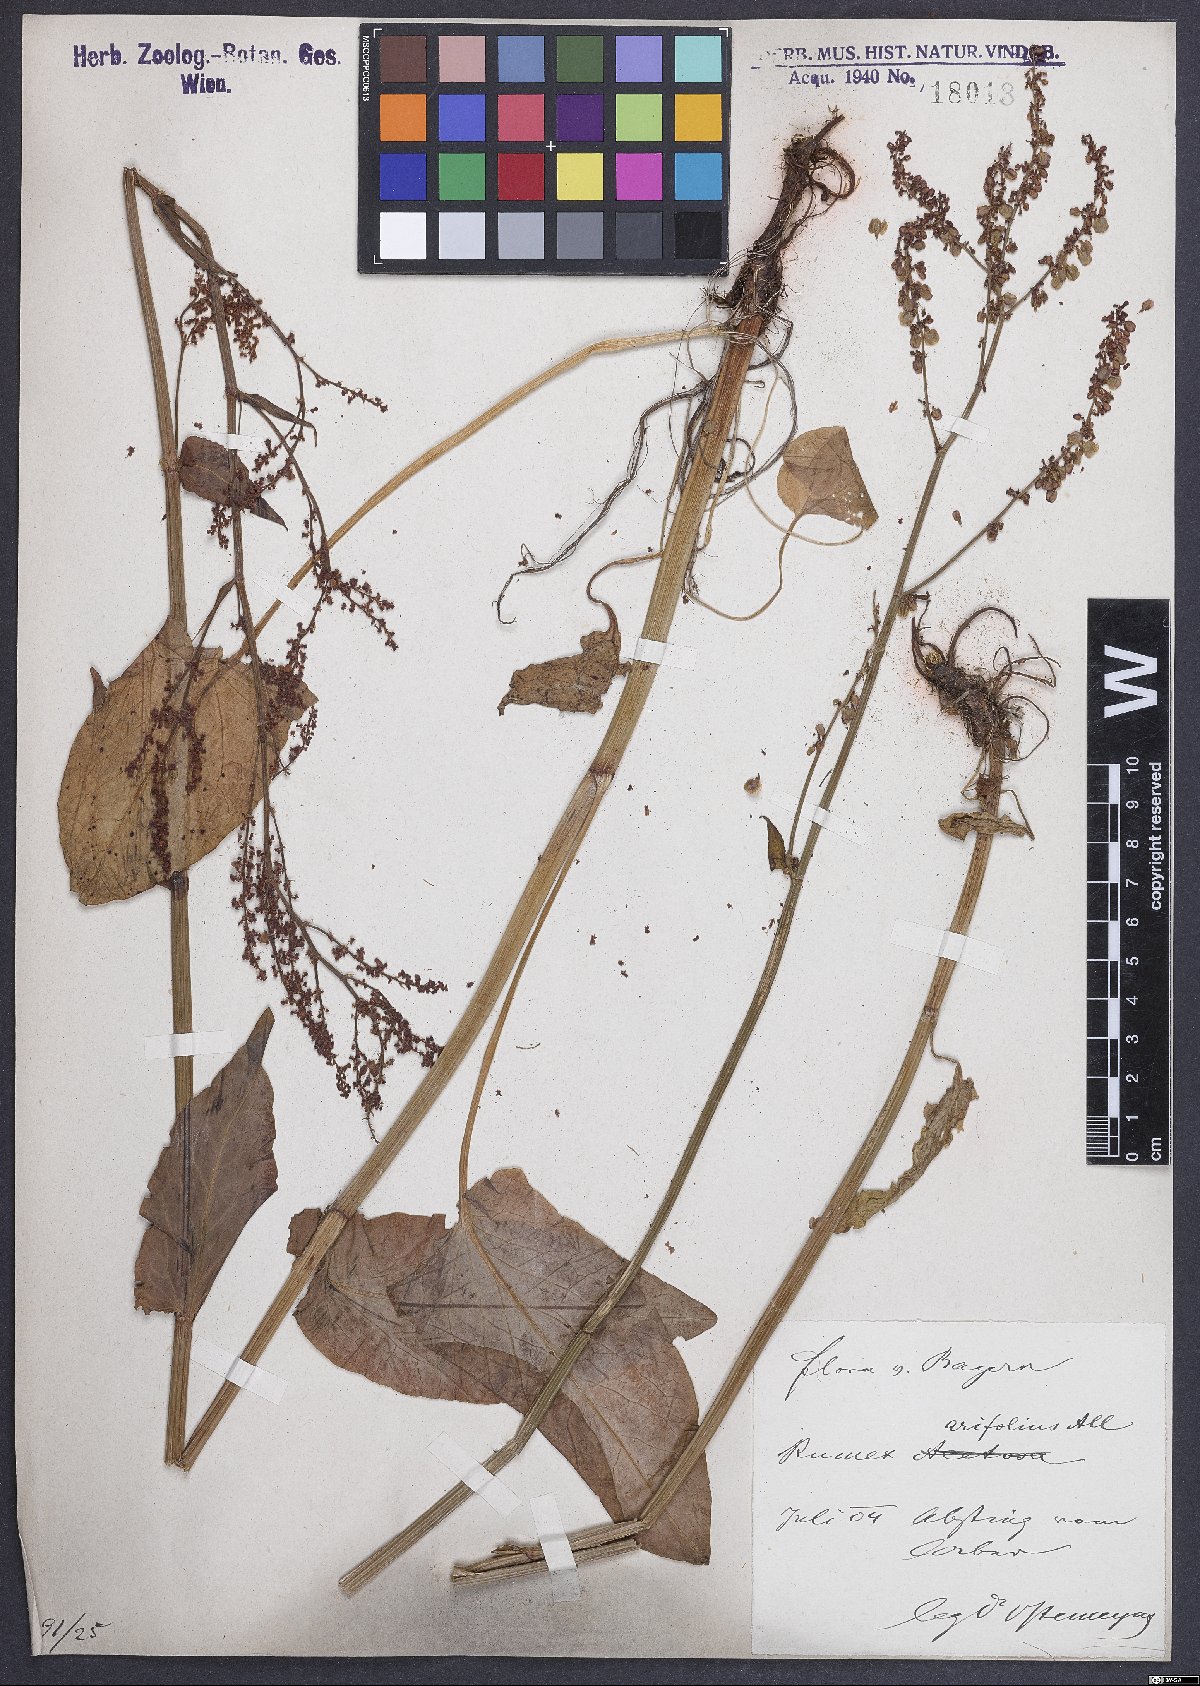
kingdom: Plantae
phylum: Tracheophyta
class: Magnoliopsida
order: Caryophyllales
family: Polygonaceae
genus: Rumex
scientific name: Rumex arifolius
